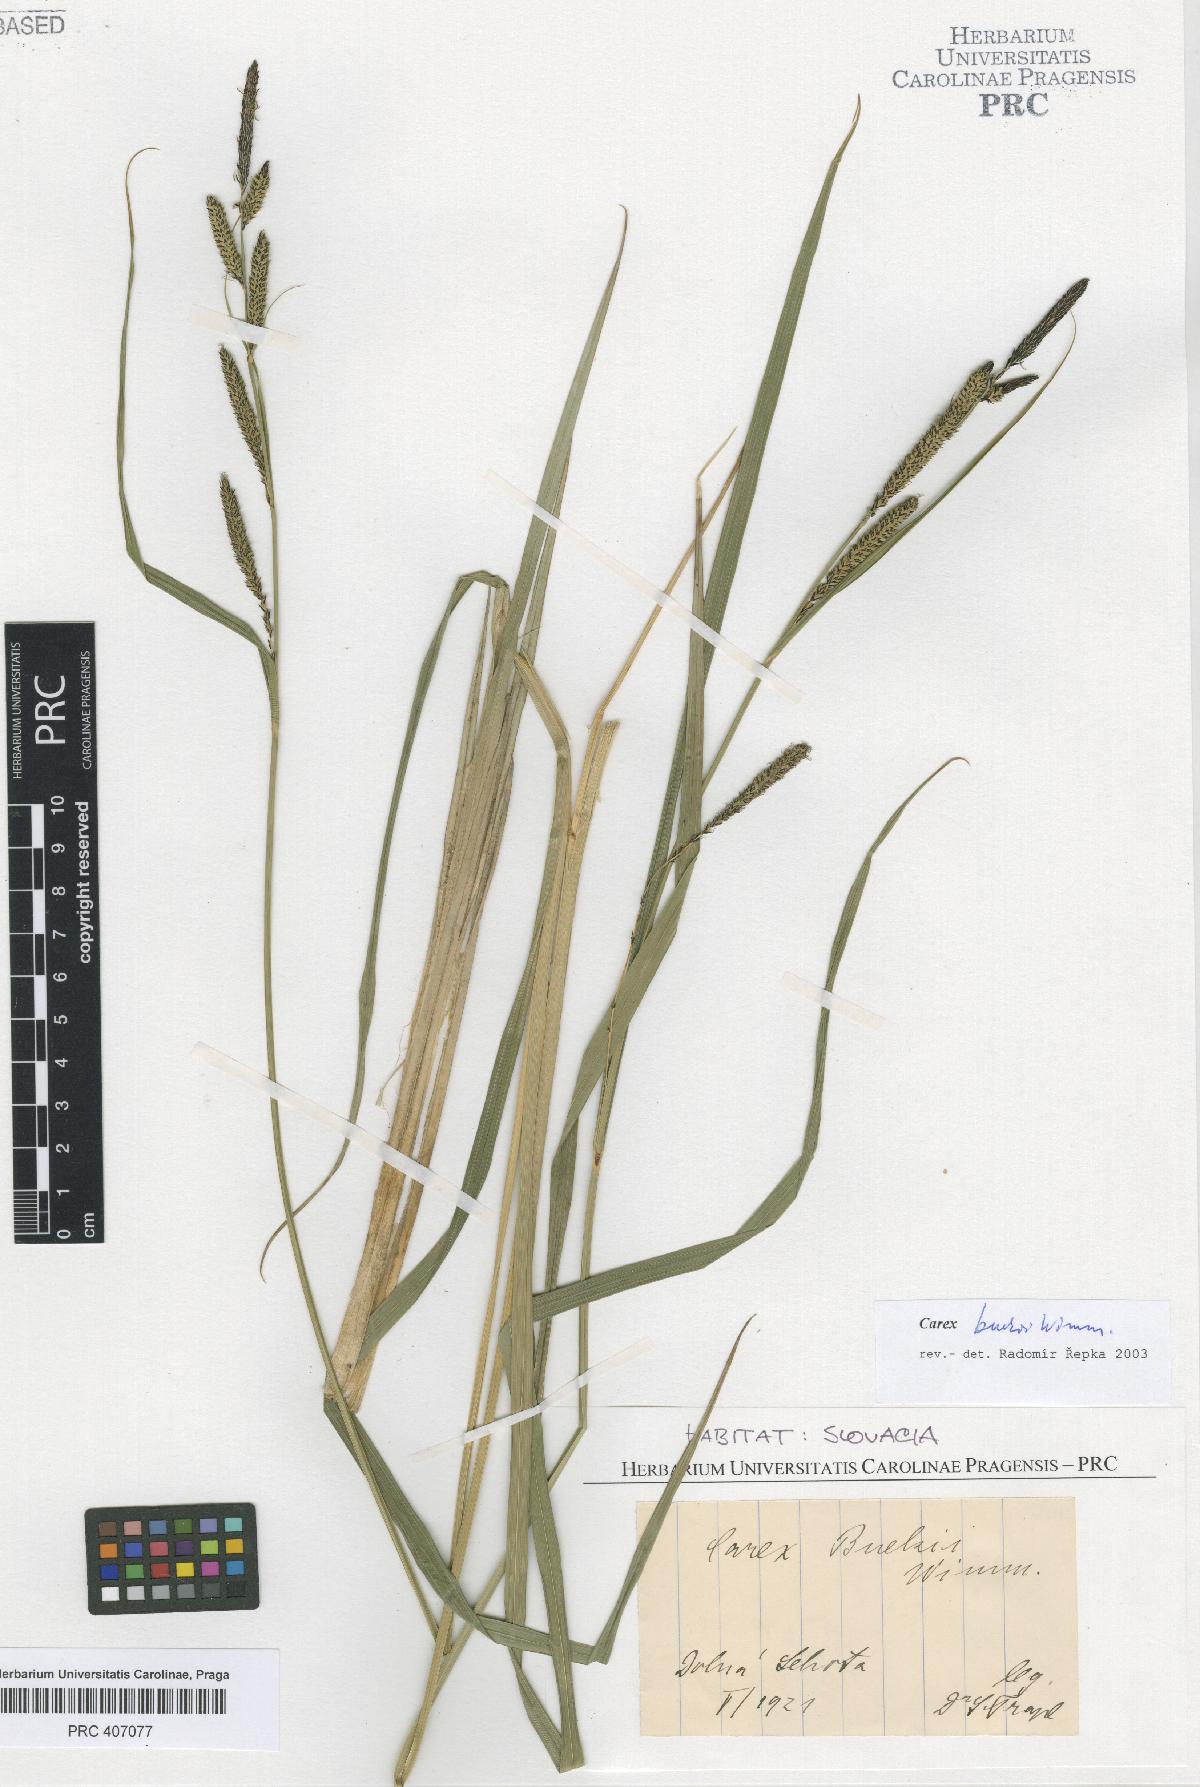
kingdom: Plantae
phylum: Tracheophyta
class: Liliopsida
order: Poales
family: Cyperaceae
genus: Carex
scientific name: Carex buekii
